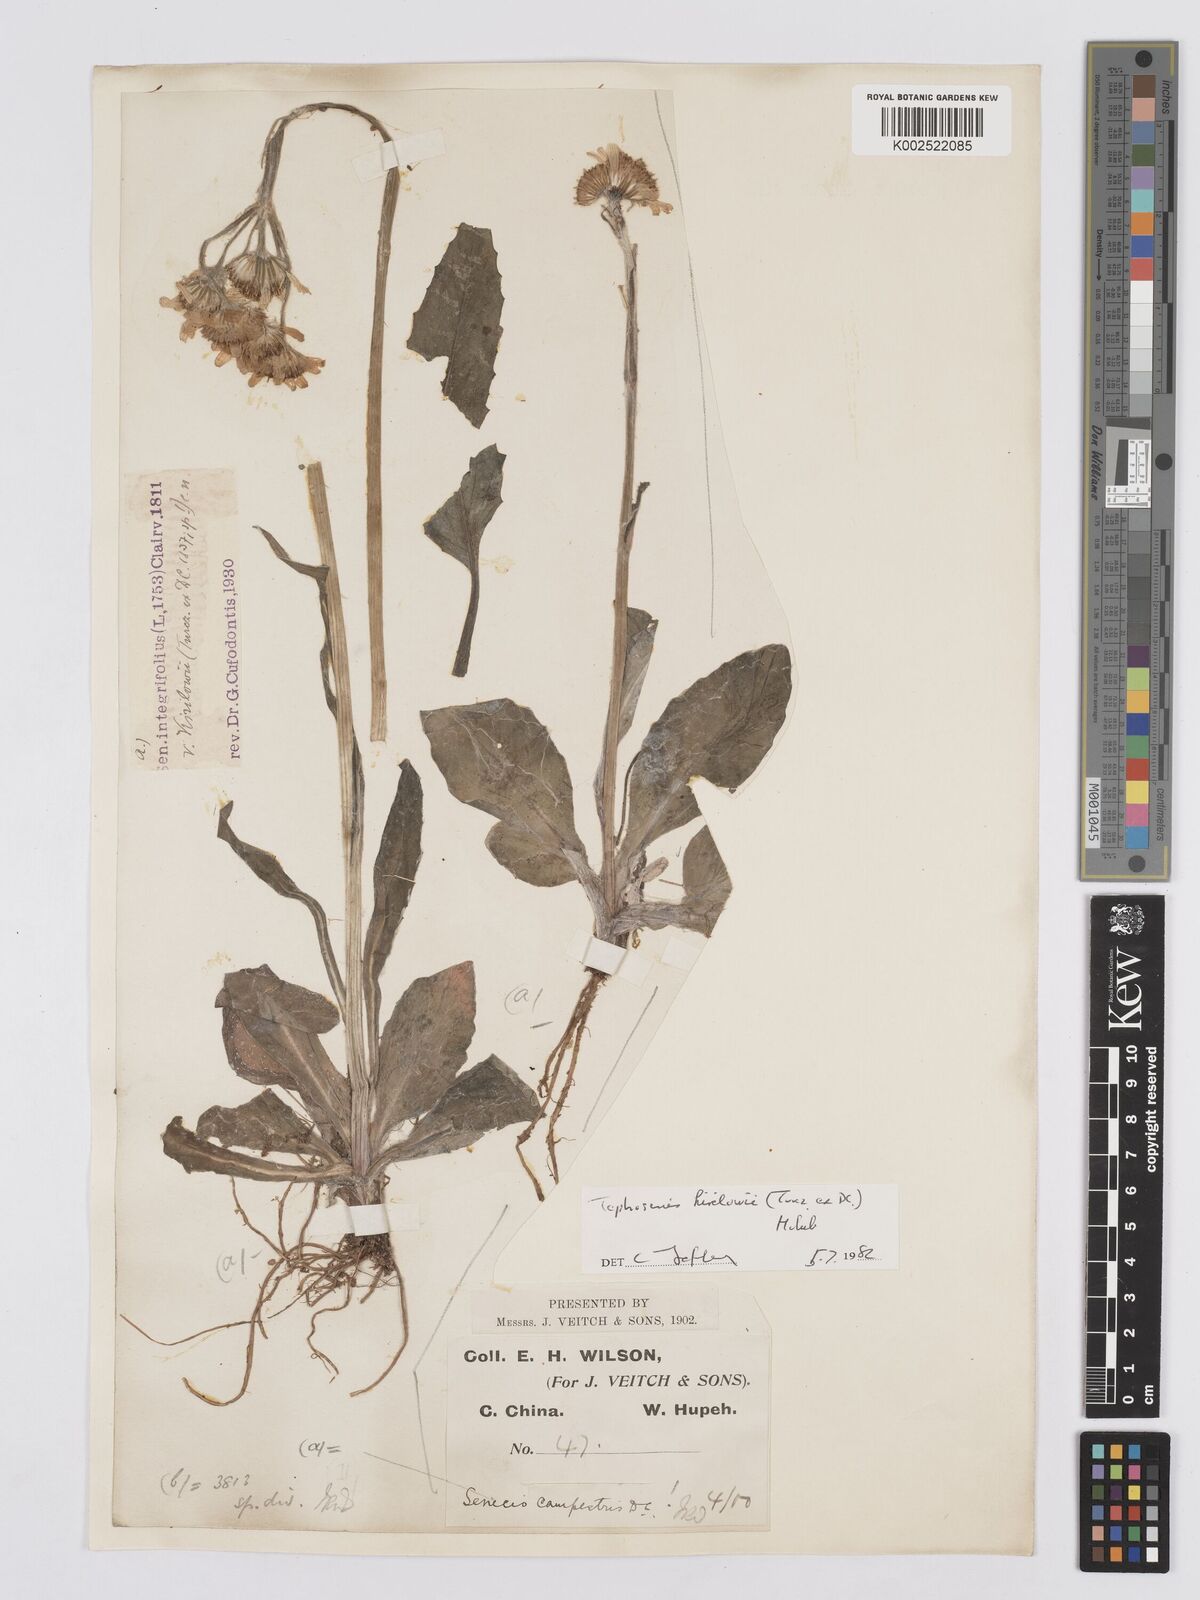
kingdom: Plantae
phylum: Tracheophyta
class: Magnoliopsida
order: Asterales
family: Asteraceae
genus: Tephroseris
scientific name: Tephroseris kirilowii
